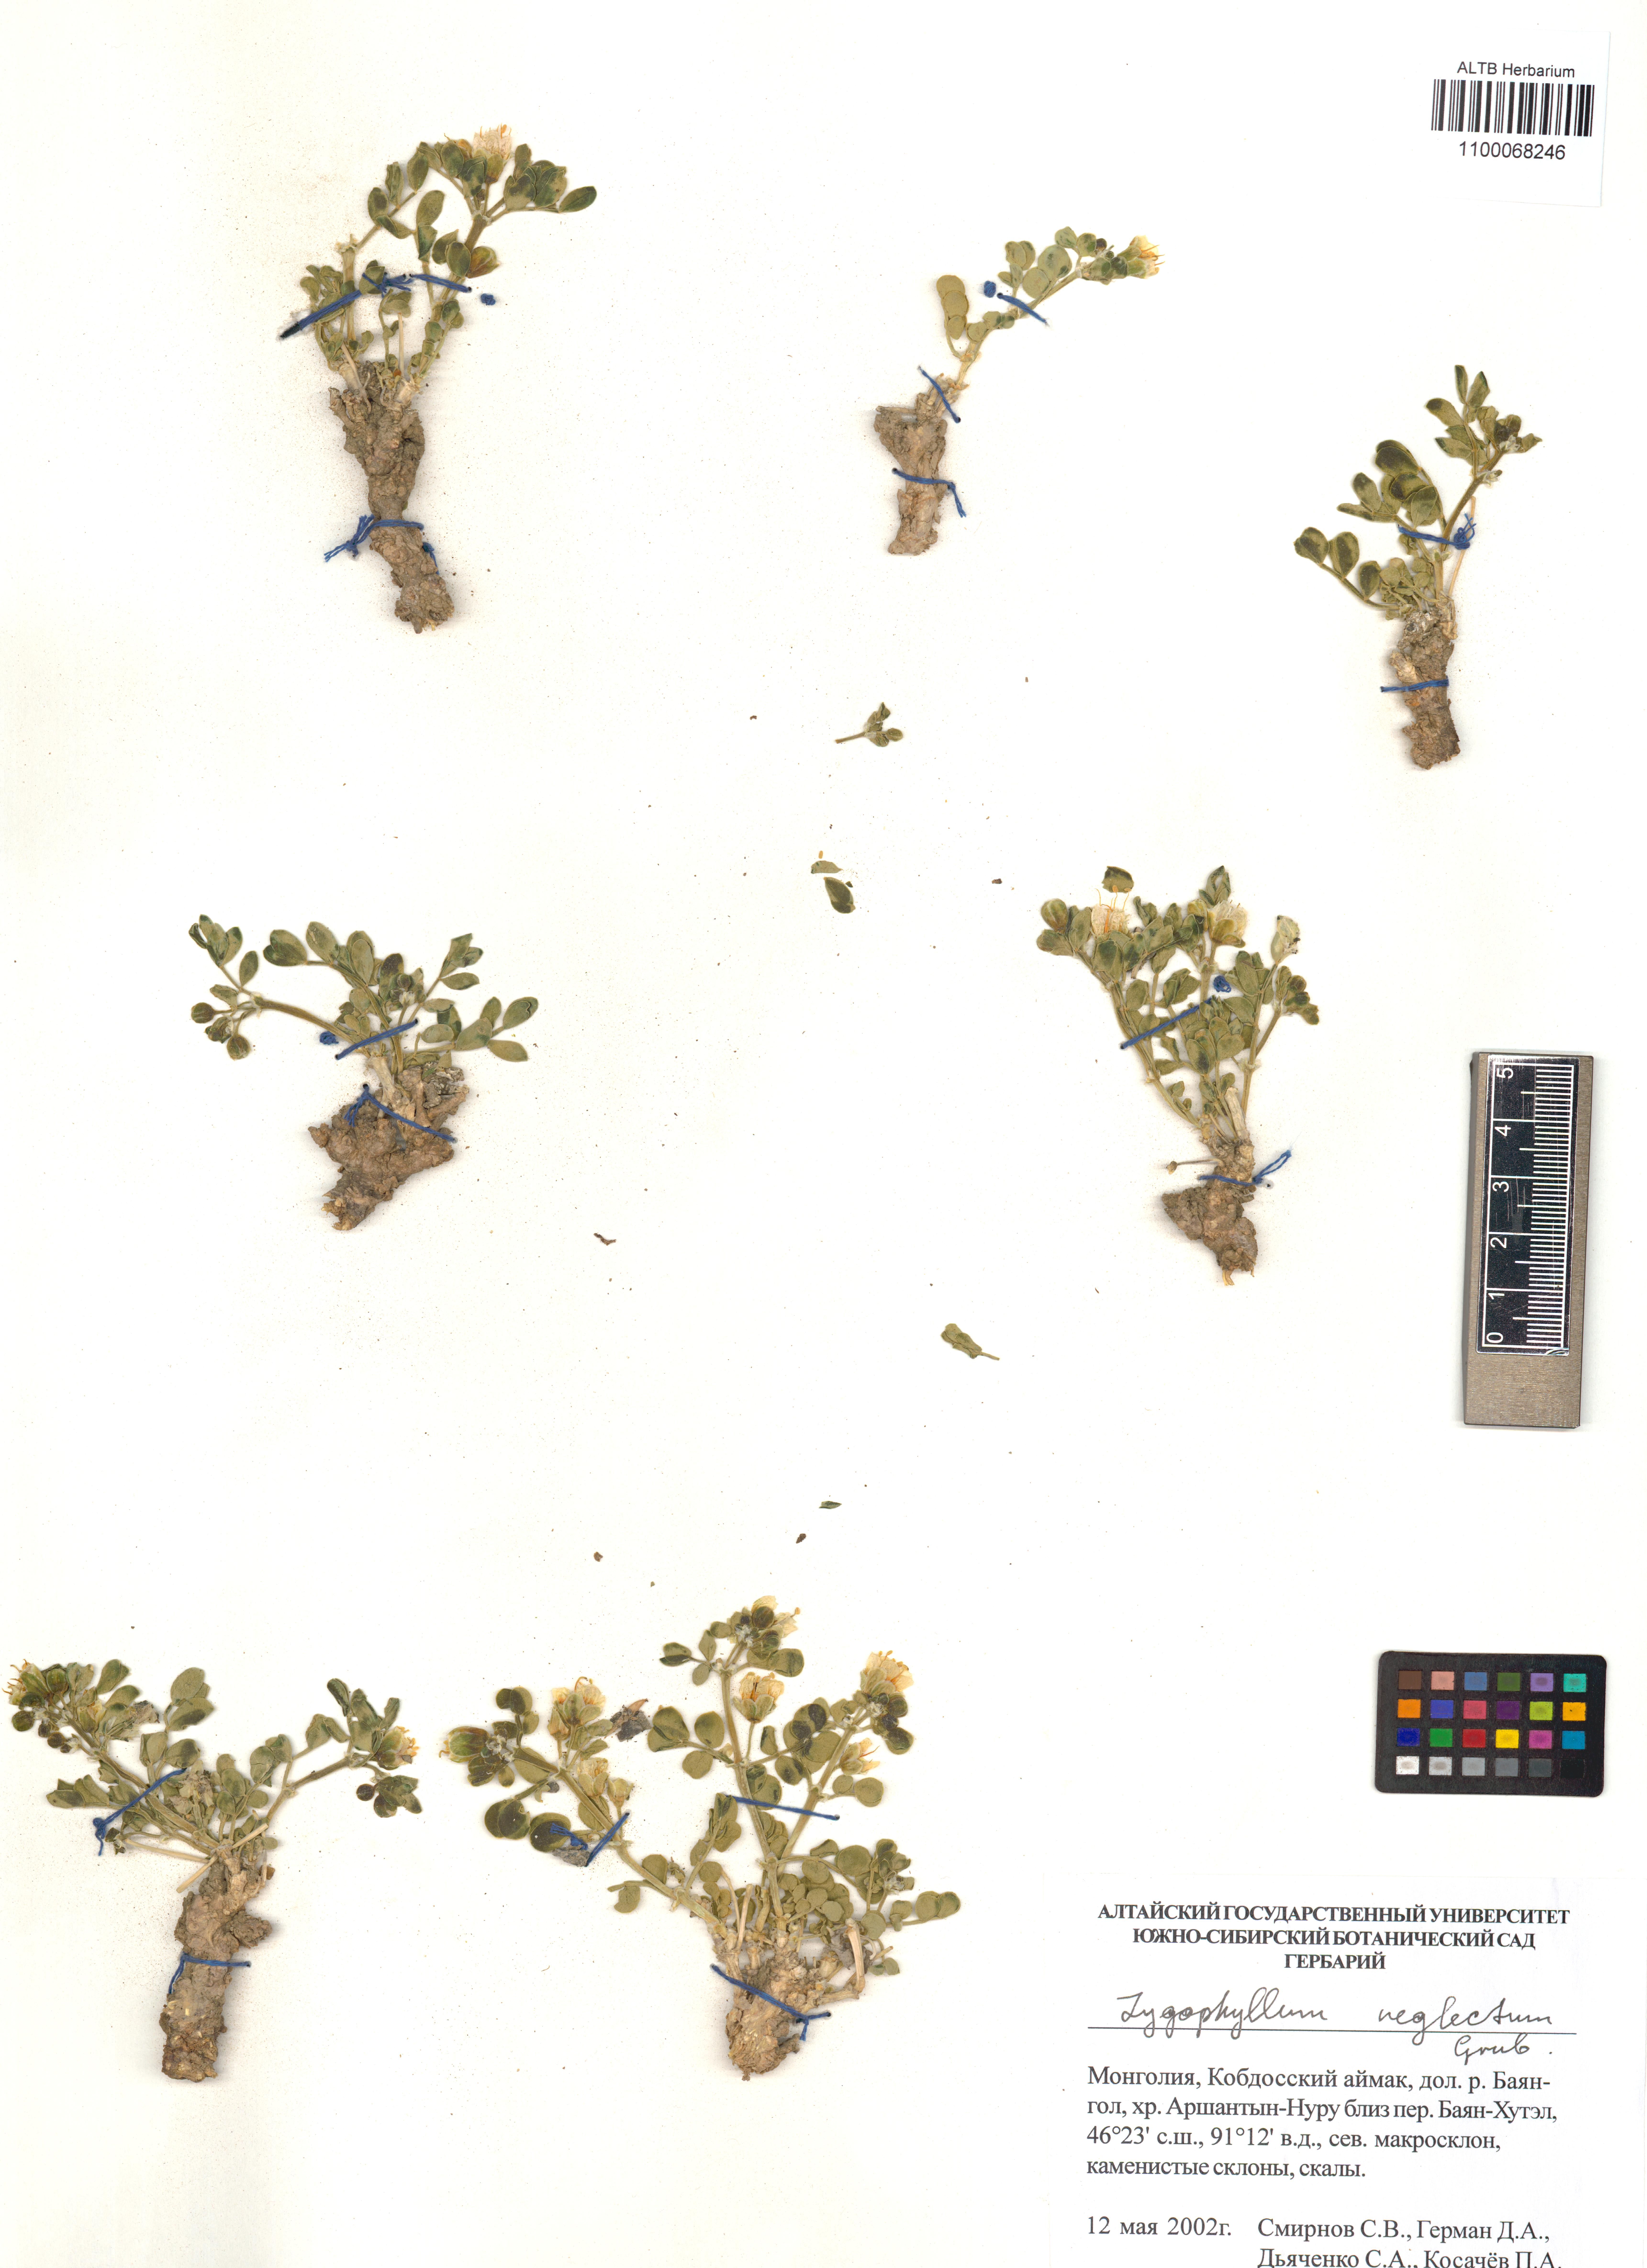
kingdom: Plantae
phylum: Tracheophyta
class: Magnoliopsida
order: Zygophyllales
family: Zygophyllaceae
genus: Zygophyllum
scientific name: Zygophyllum neglectum
